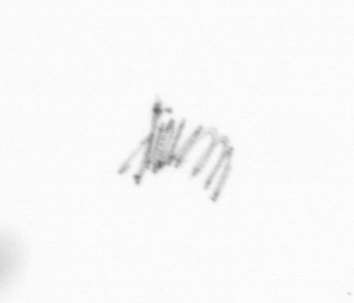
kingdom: Chromista
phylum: Ochrophyta
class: Bacillariophyceae
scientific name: Bacillariophyceae
